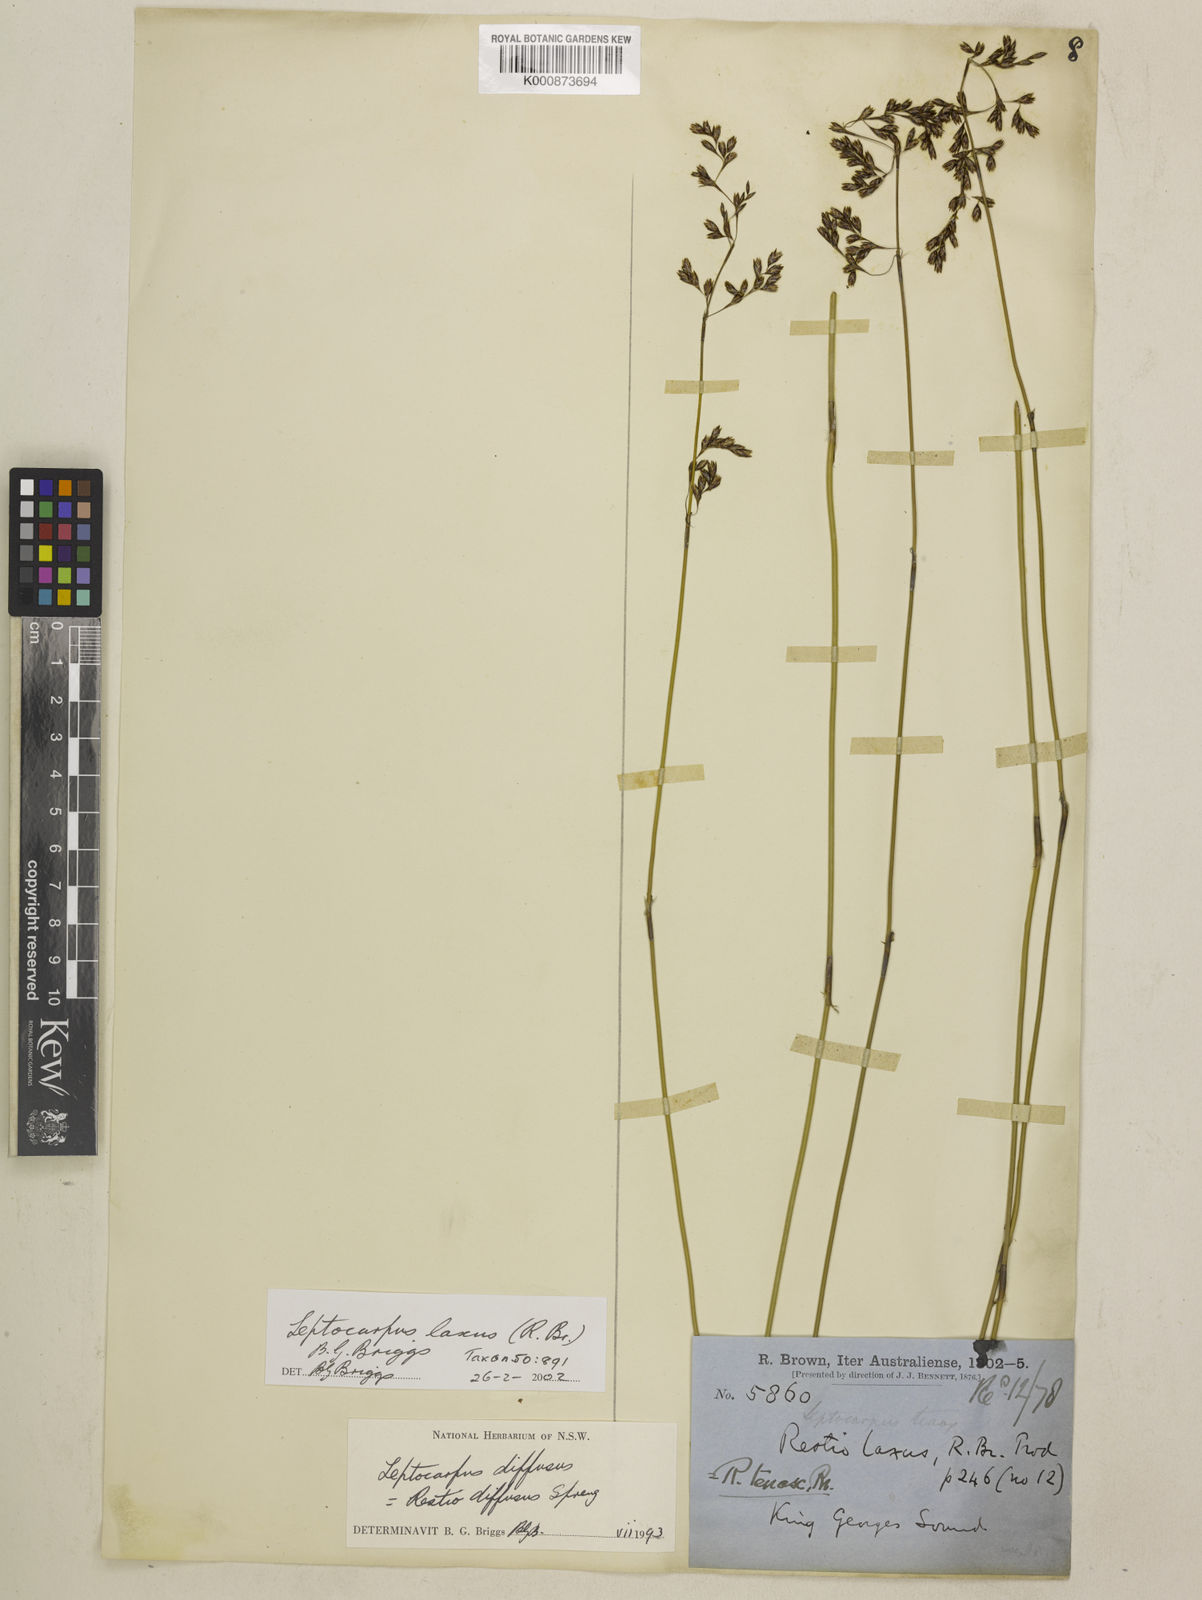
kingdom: Plantae
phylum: Tracheophyta
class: Liliopsida
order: Poales
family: Restionaceae
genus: Leptocarpus
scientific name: Leptocarpus laxus
